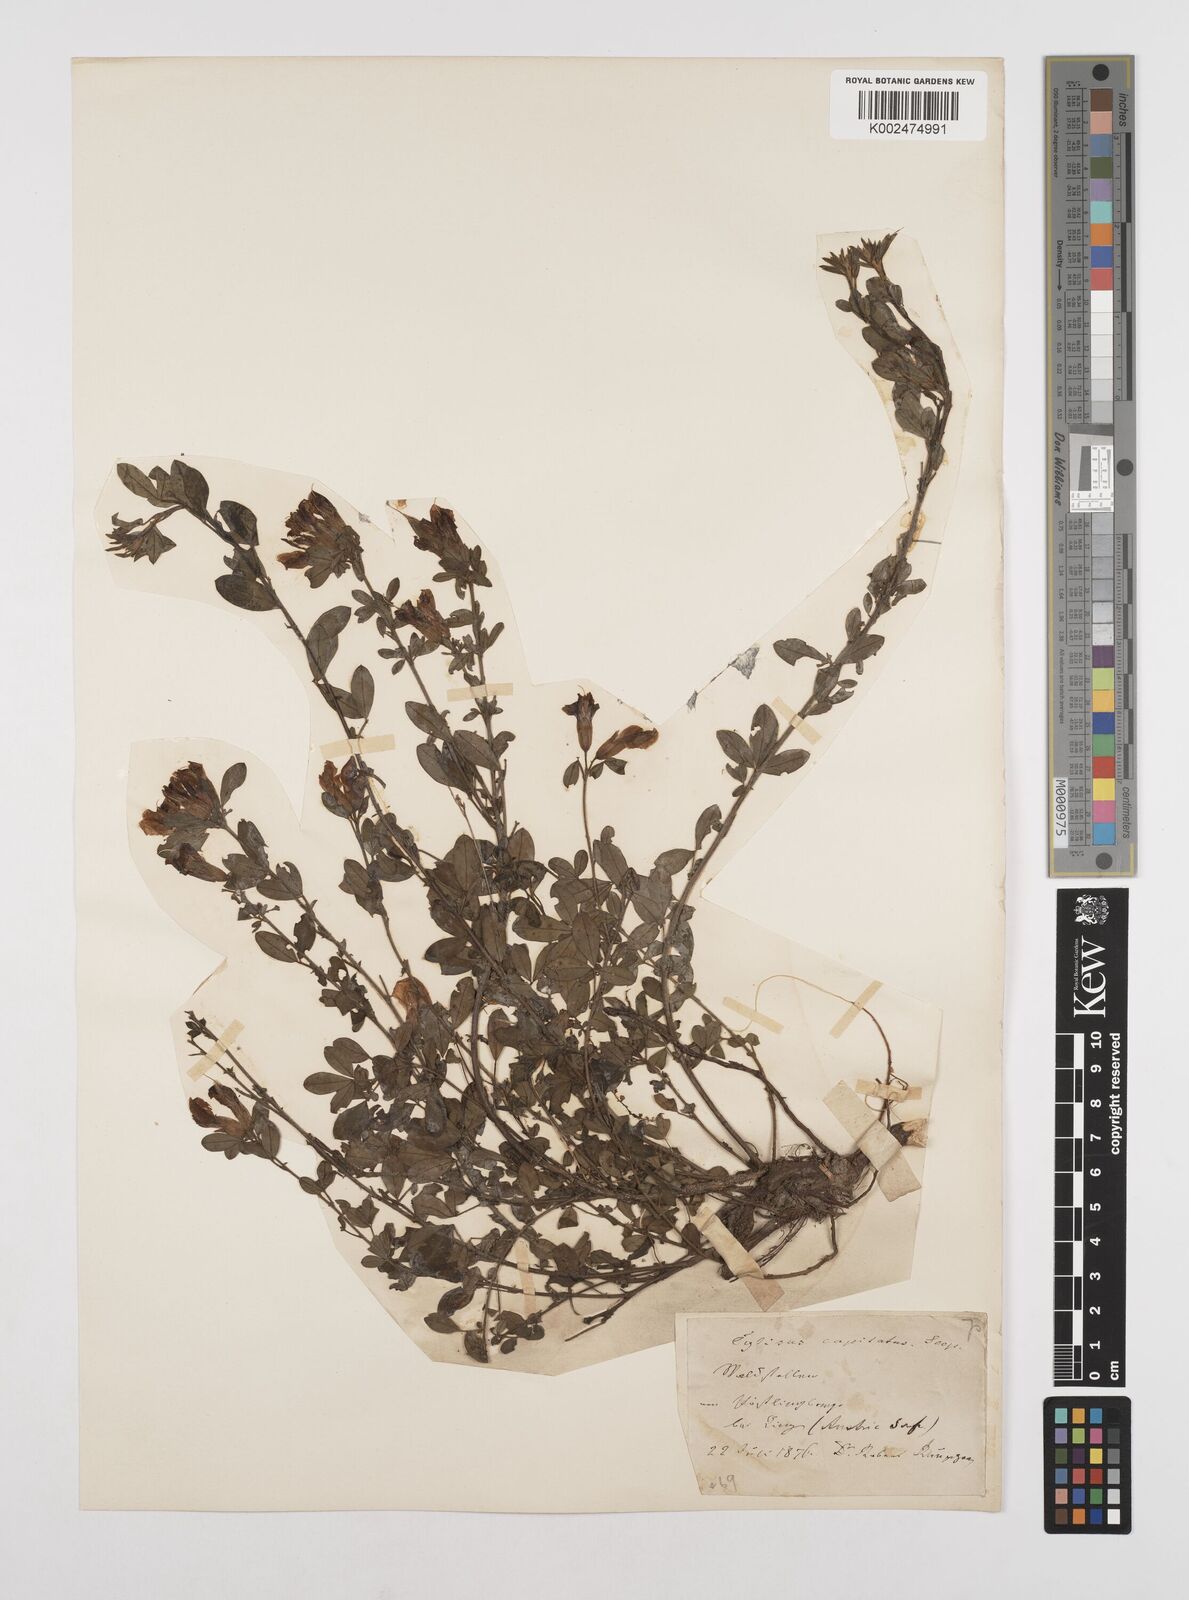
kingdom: Plantae
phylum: Tracheophyta
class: Magnoliopsida
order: Fabales
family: Fabaceae
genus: Chamaecytisus
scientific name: Chamaecytisus hirsutus
